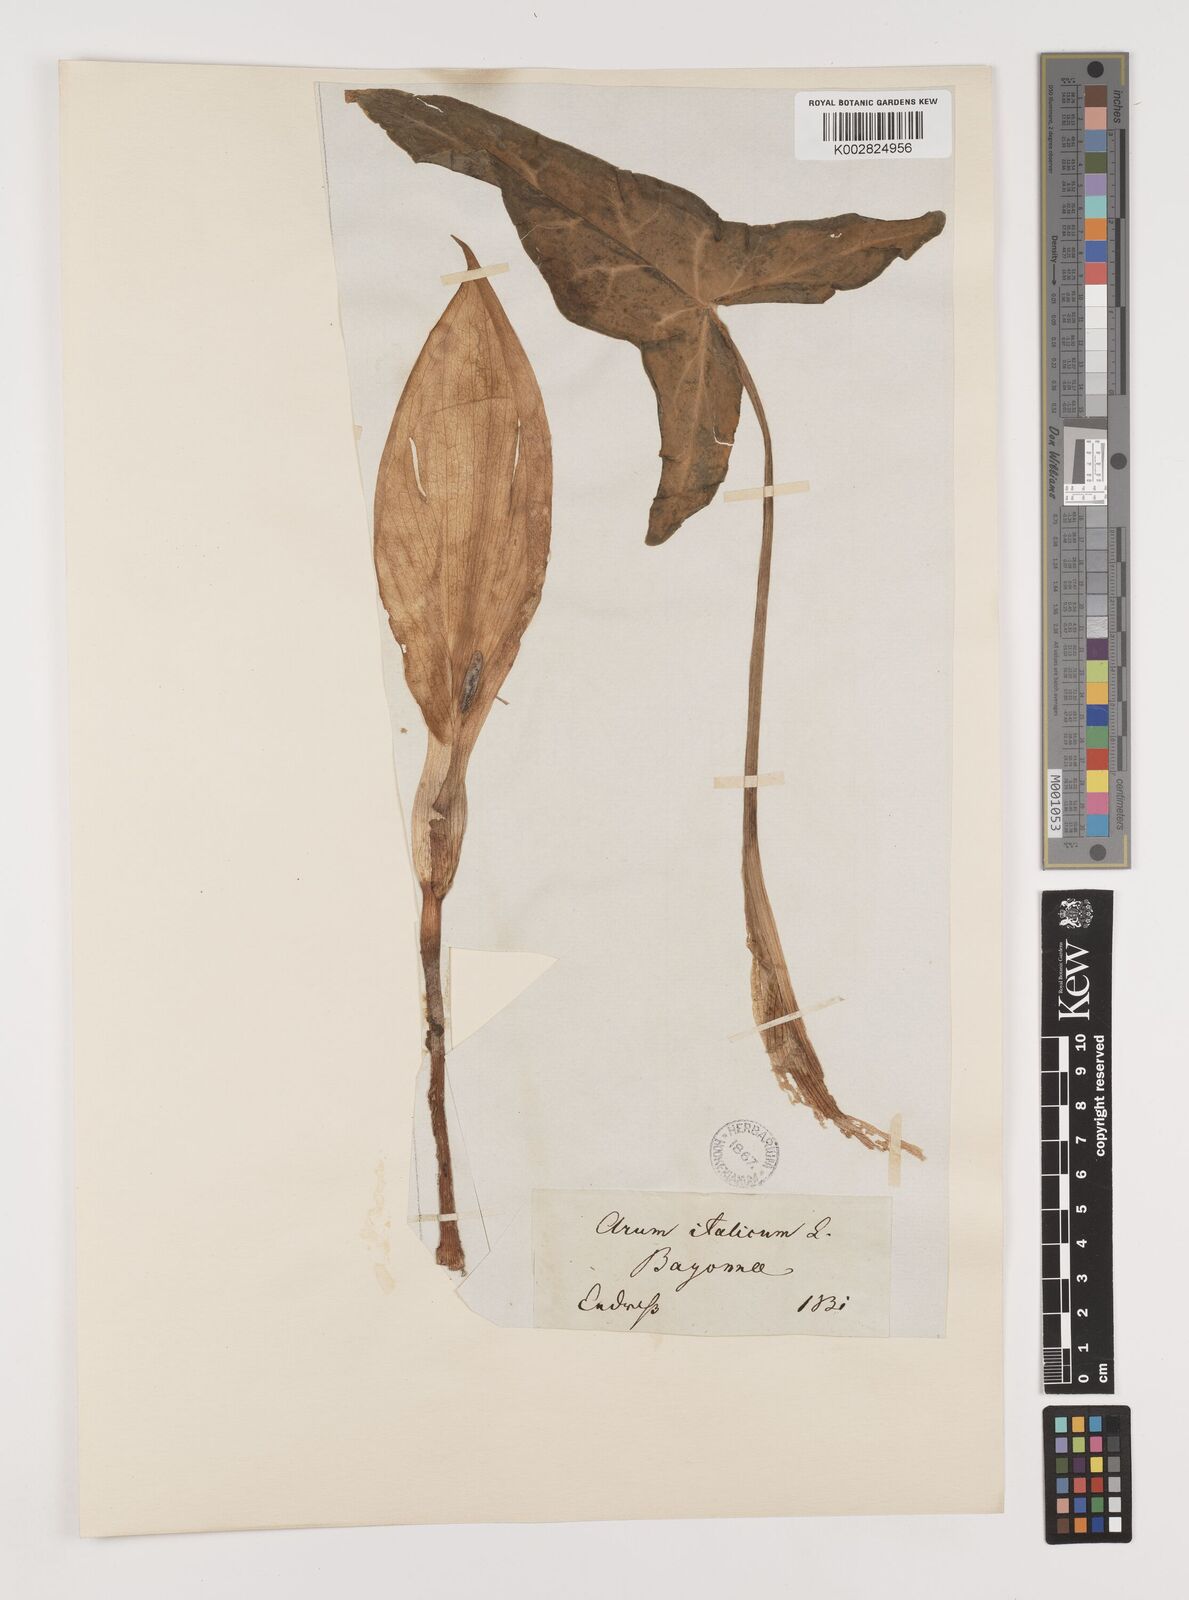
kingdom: Plantae
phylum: Tracheophyta
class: Liliopsida
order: Alismatales
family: Araceae
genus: Arum
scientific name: Arum italicum
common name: Italian lords-and-ladies
